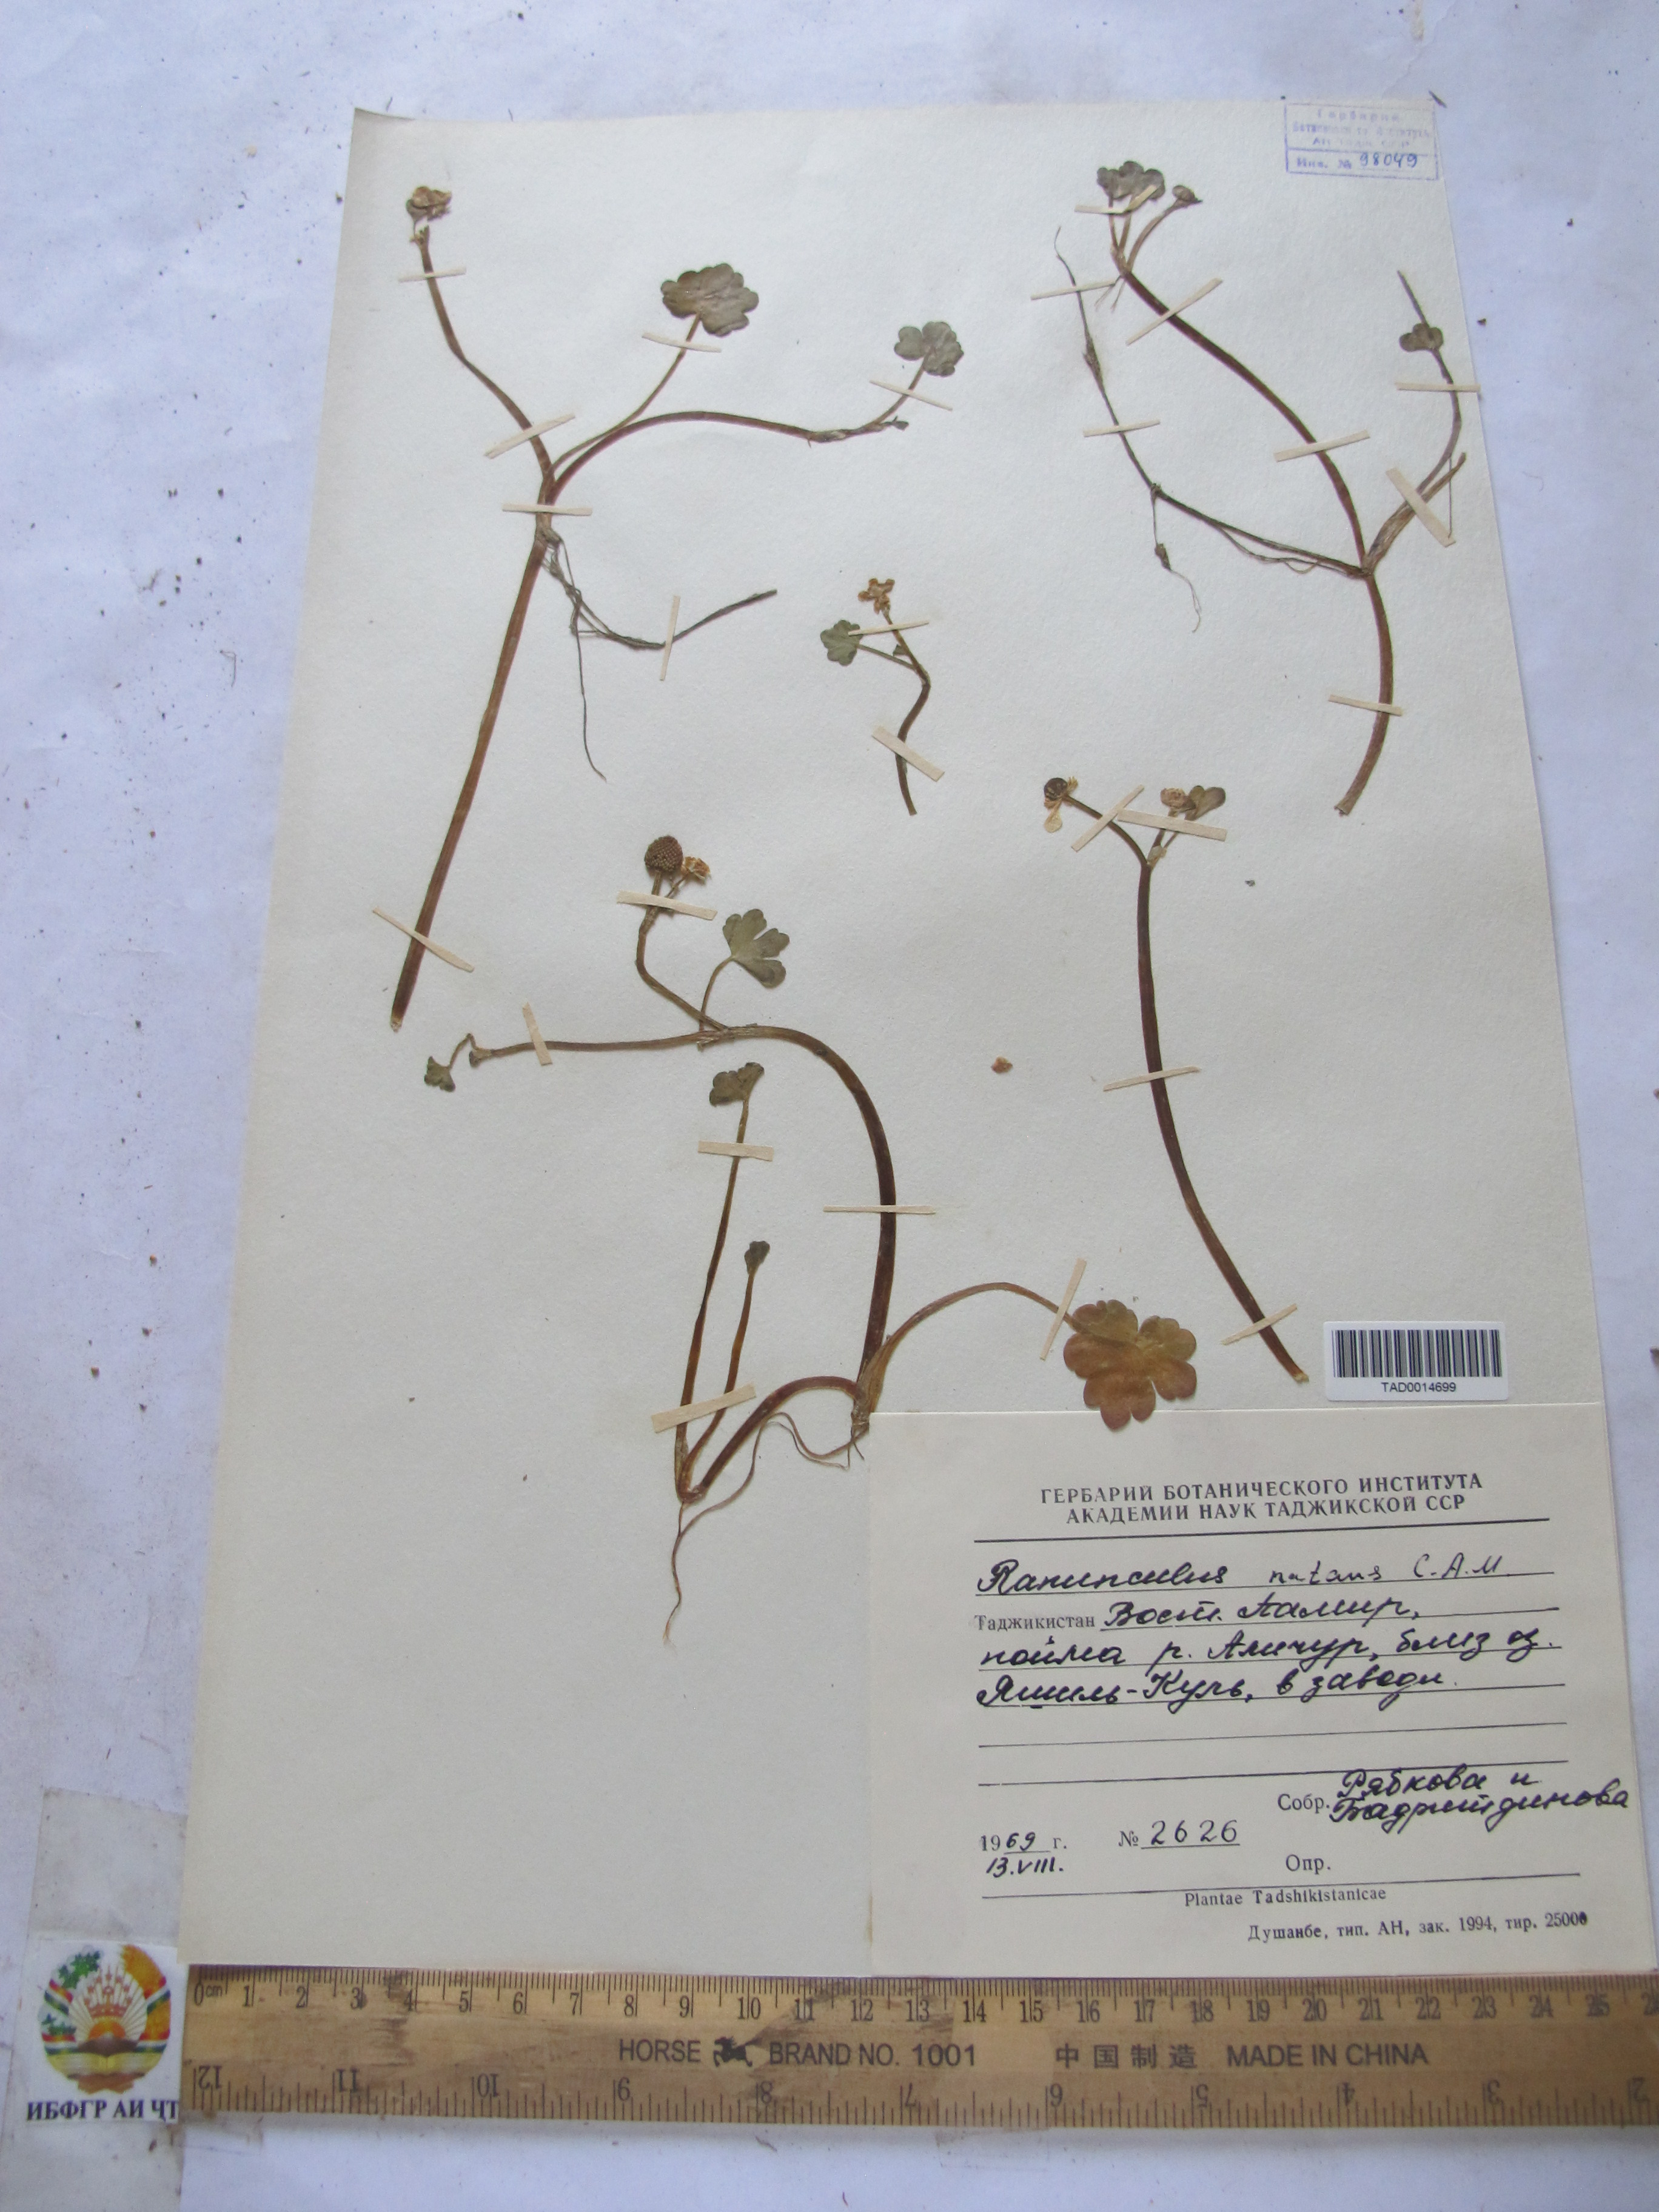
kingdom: Plantae
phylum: Tracheophyta
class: Magnoliopsida
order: Ranunculales
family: Ranunculaceae
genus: Ranunculus
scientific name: Ranunculus natans
